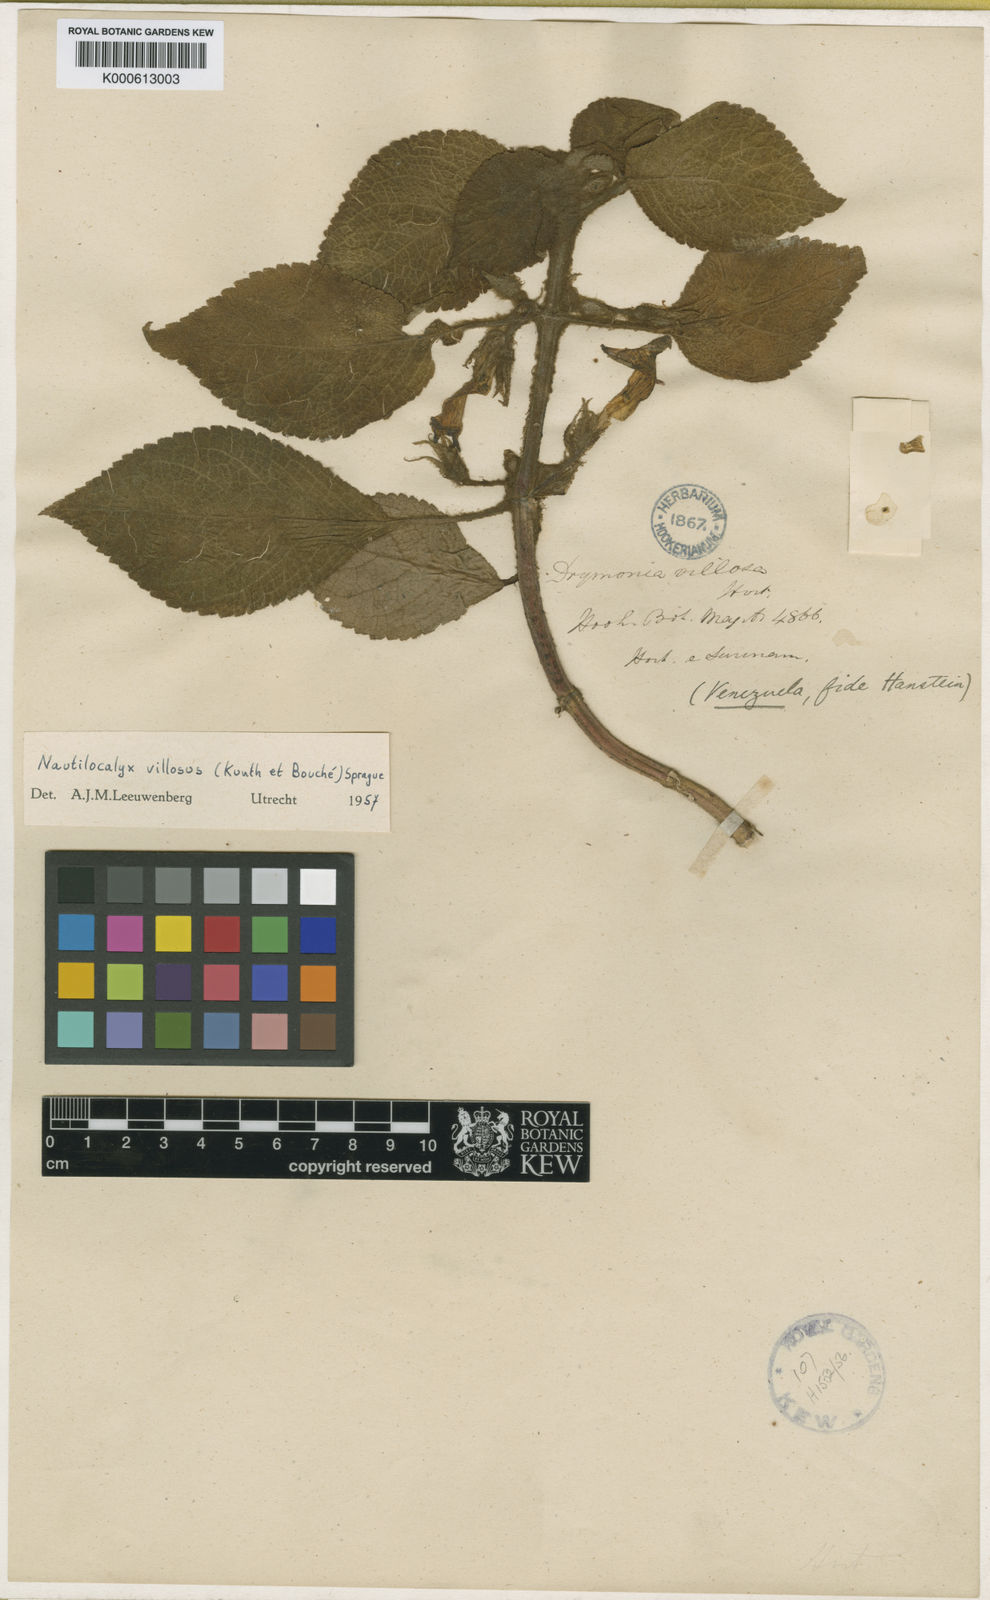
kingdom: Plantae
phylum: Tracheophyta
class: Magnoliopsida
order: Lamiales
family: Gesneriaceae
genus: Nautilocalyx
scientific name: Nautilocalyx villosus
